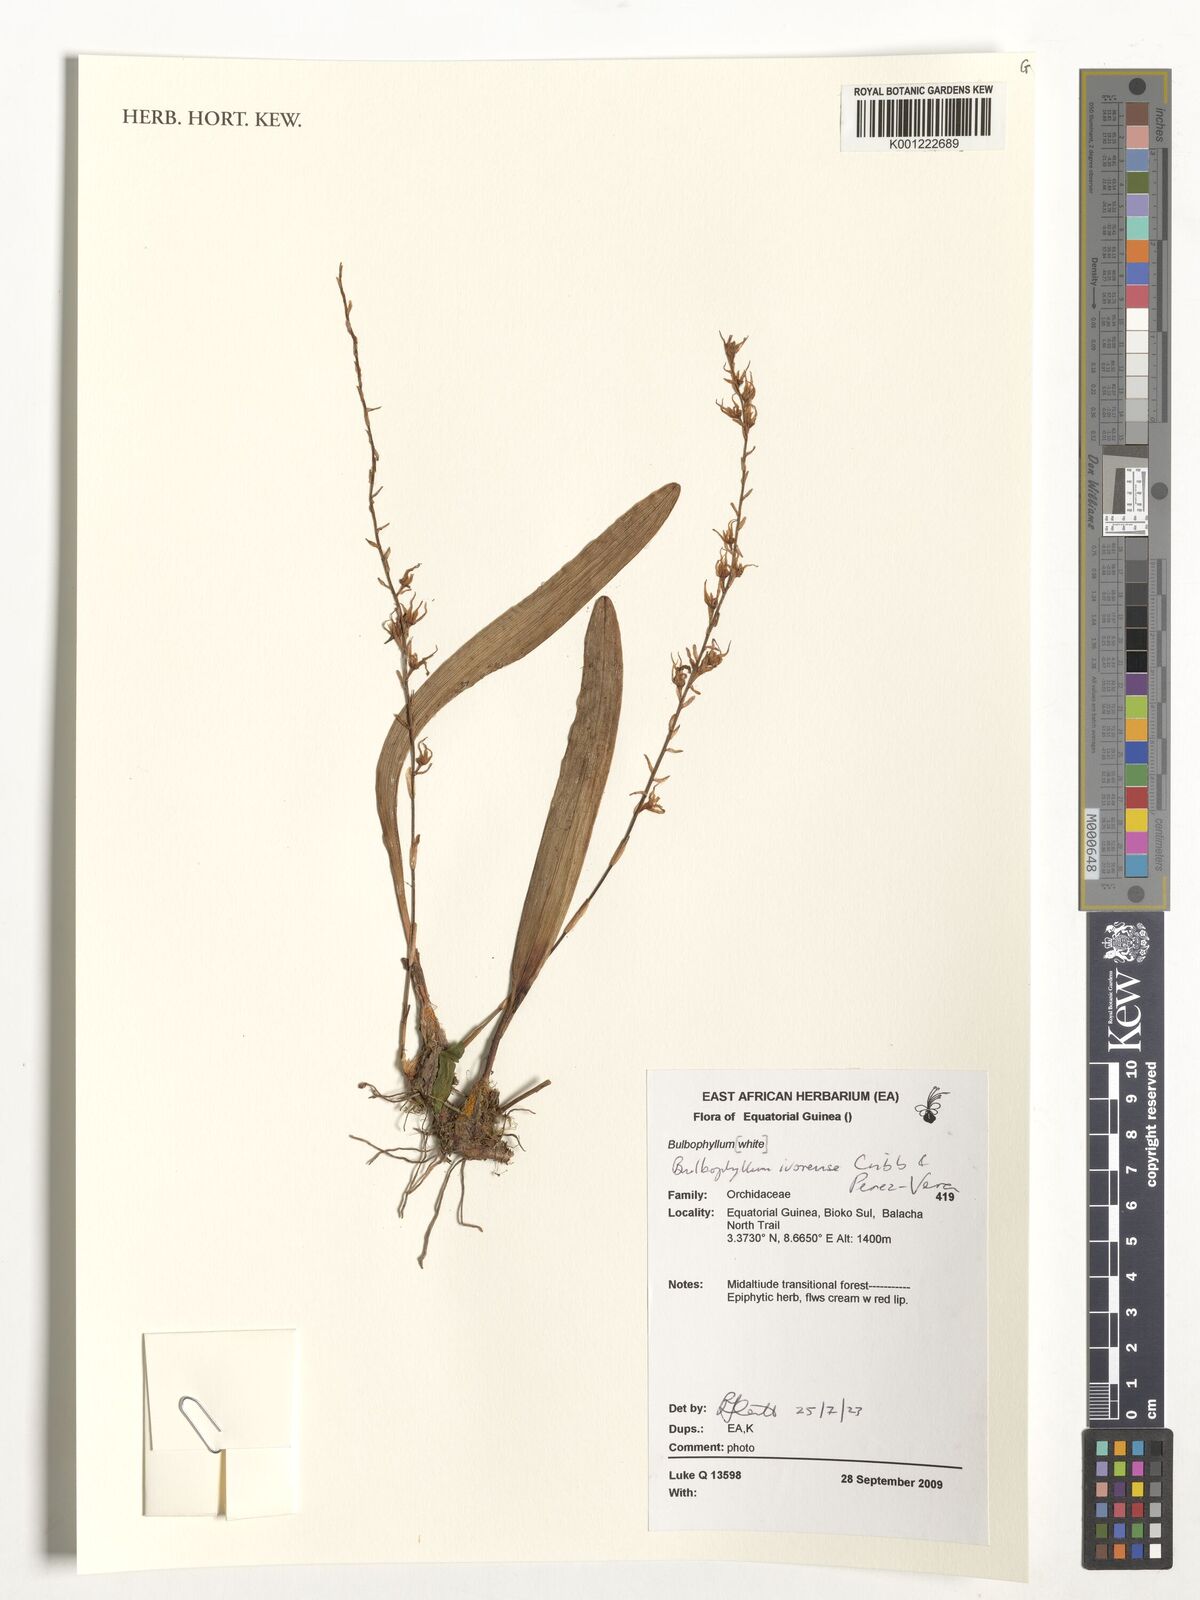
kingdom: Plantae
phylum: Tracheophyta
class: Liliopsida
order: Asparagales
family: Orchidaceae
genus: Bulbophyllum
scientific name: Bulbophyllum ivorense
